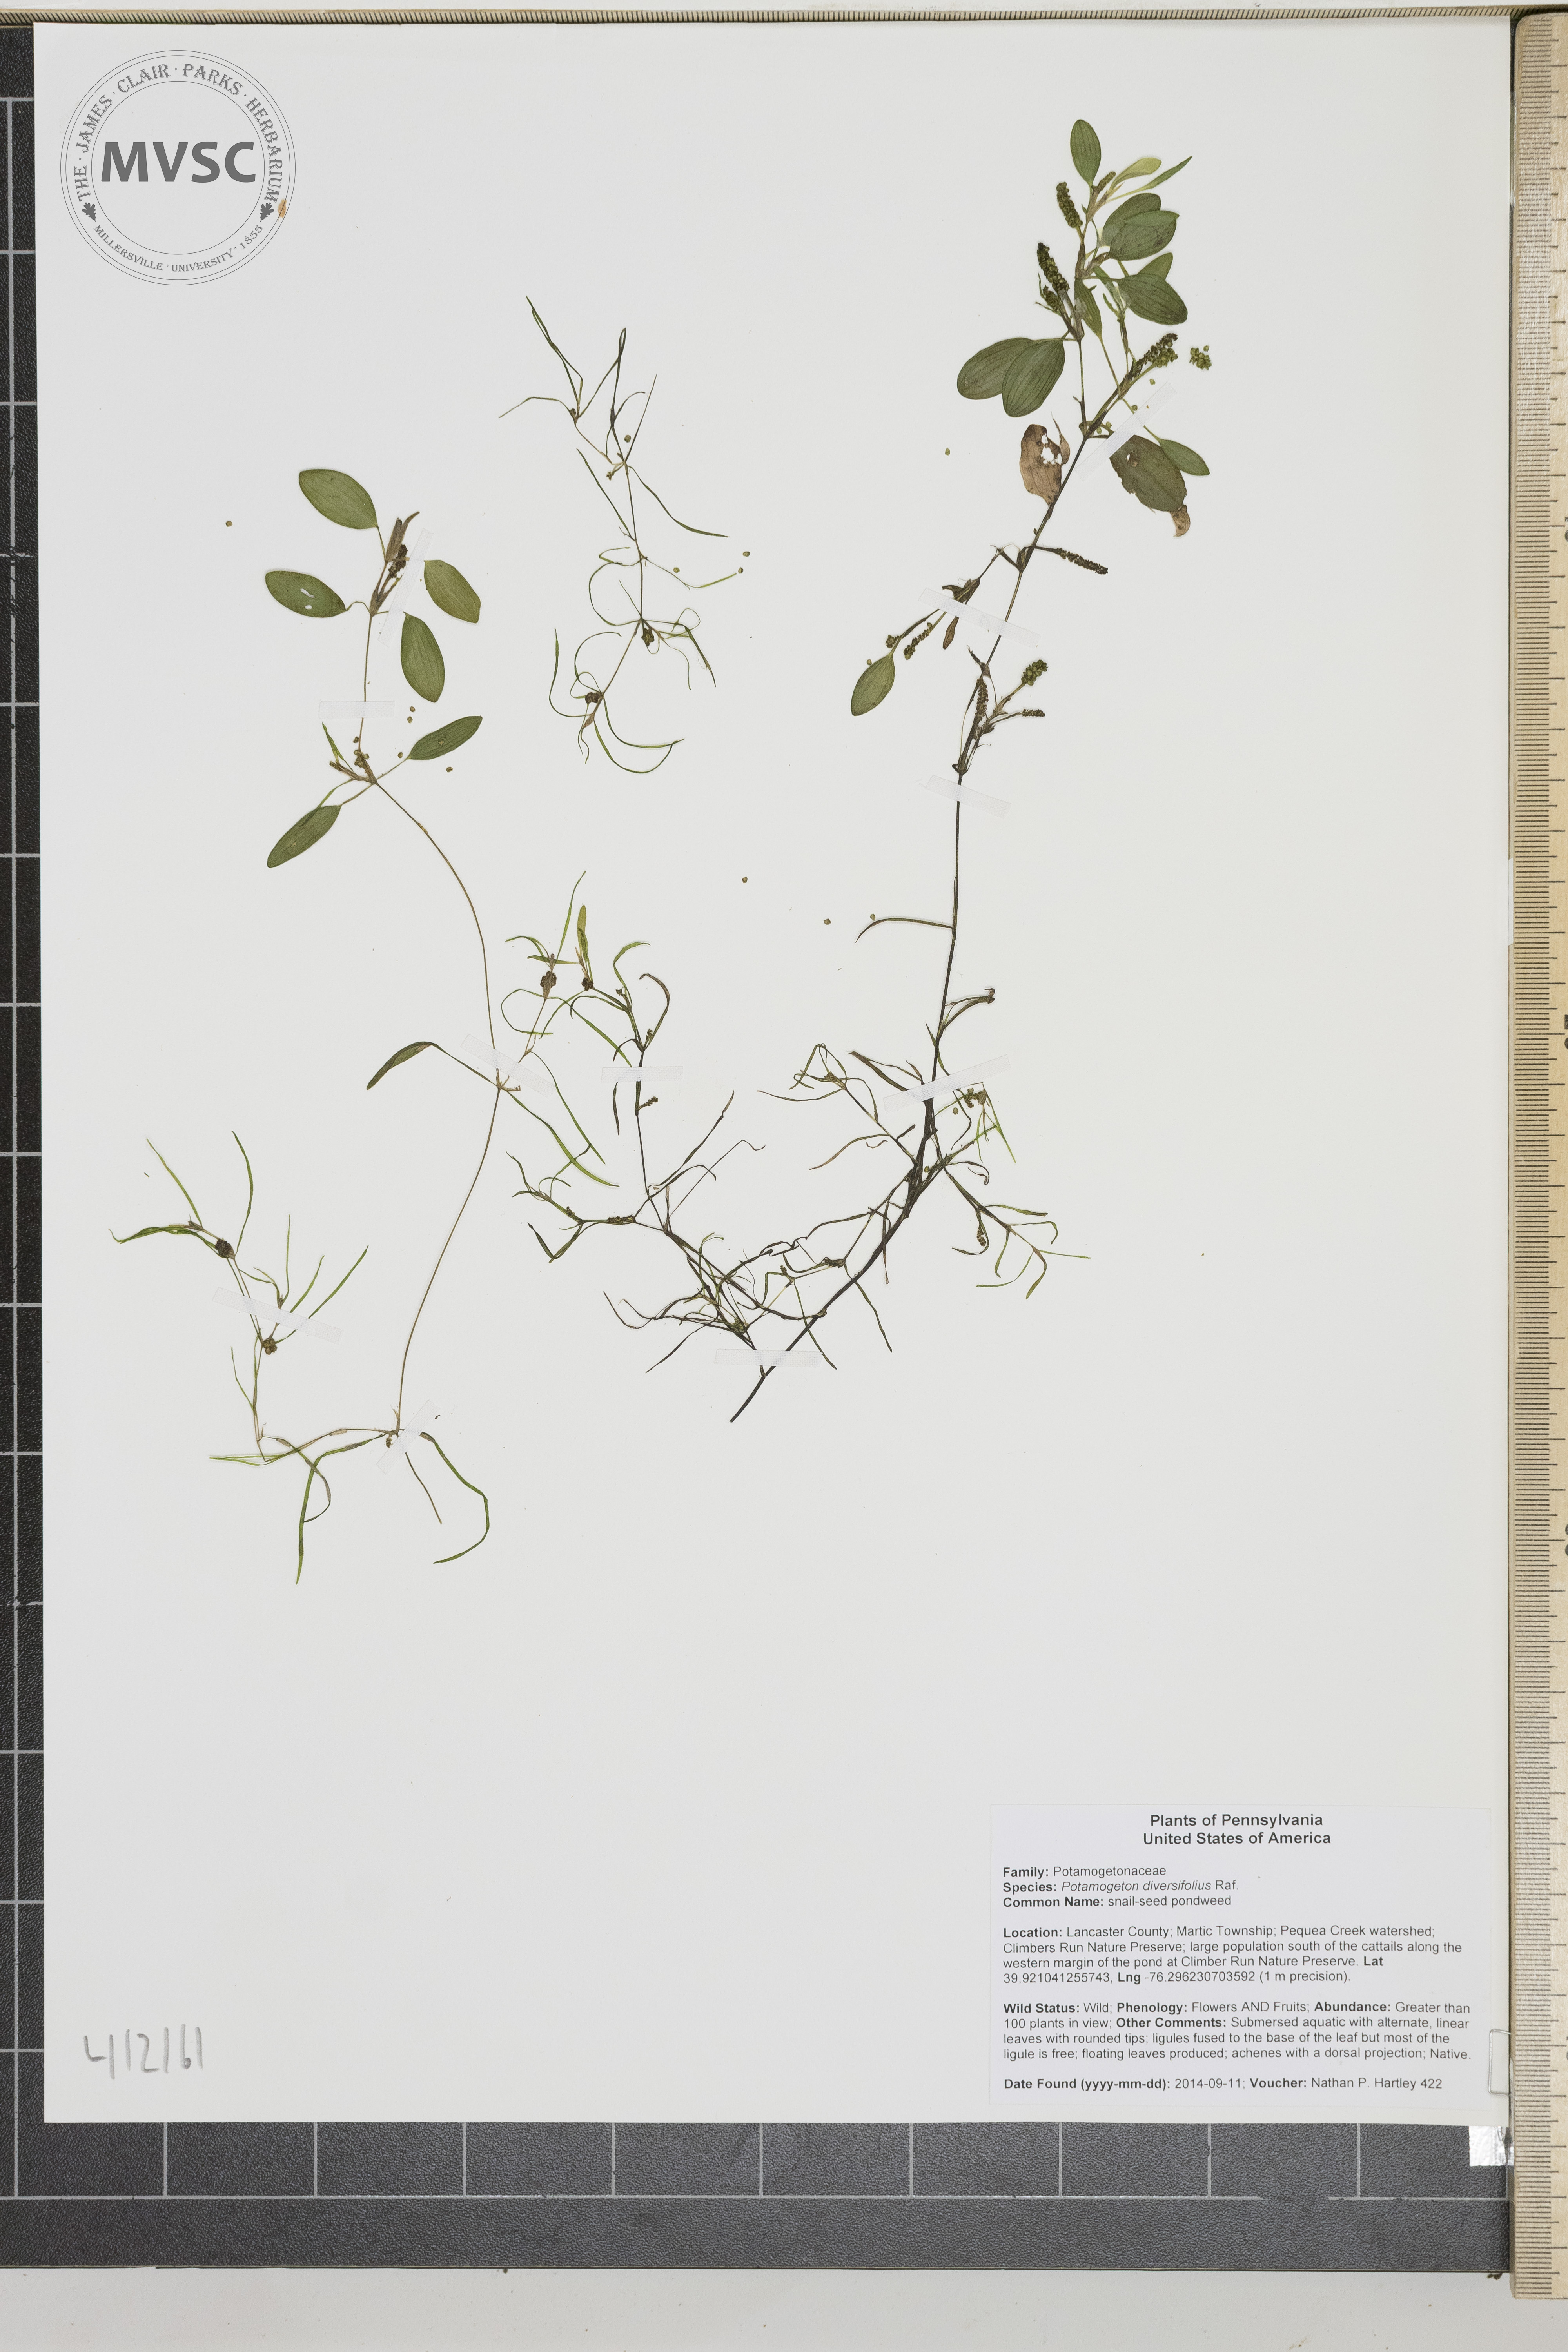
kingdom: Plantae
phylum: Tracheophyta
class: Liliopsida
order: Alismatales
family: Potamogetonaceae
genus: Potamogeton
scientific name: Potamogeton diversifolius
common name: snailseed pondweed
